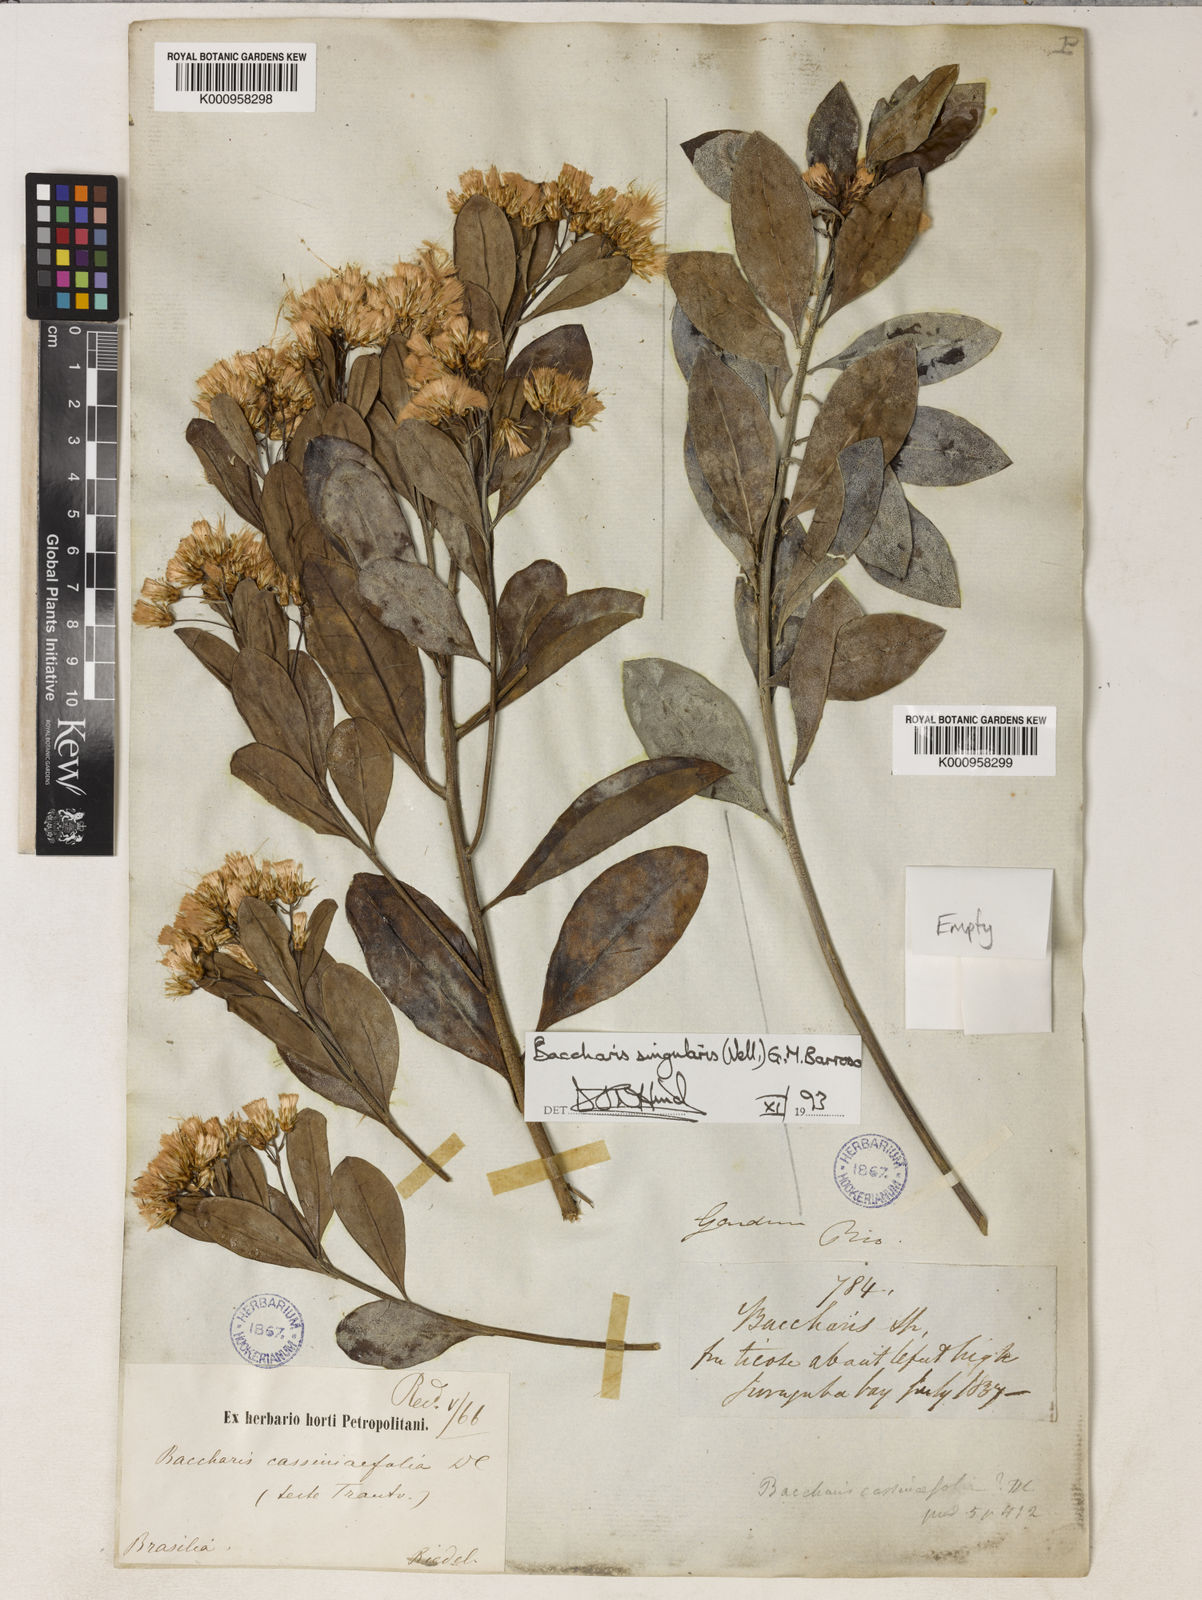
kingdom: Plantae
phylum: Tracheophyta
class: Magnoliopsida
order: Asterales
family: Asteraceae
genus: Baccharis
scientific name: Baccharis singularis
